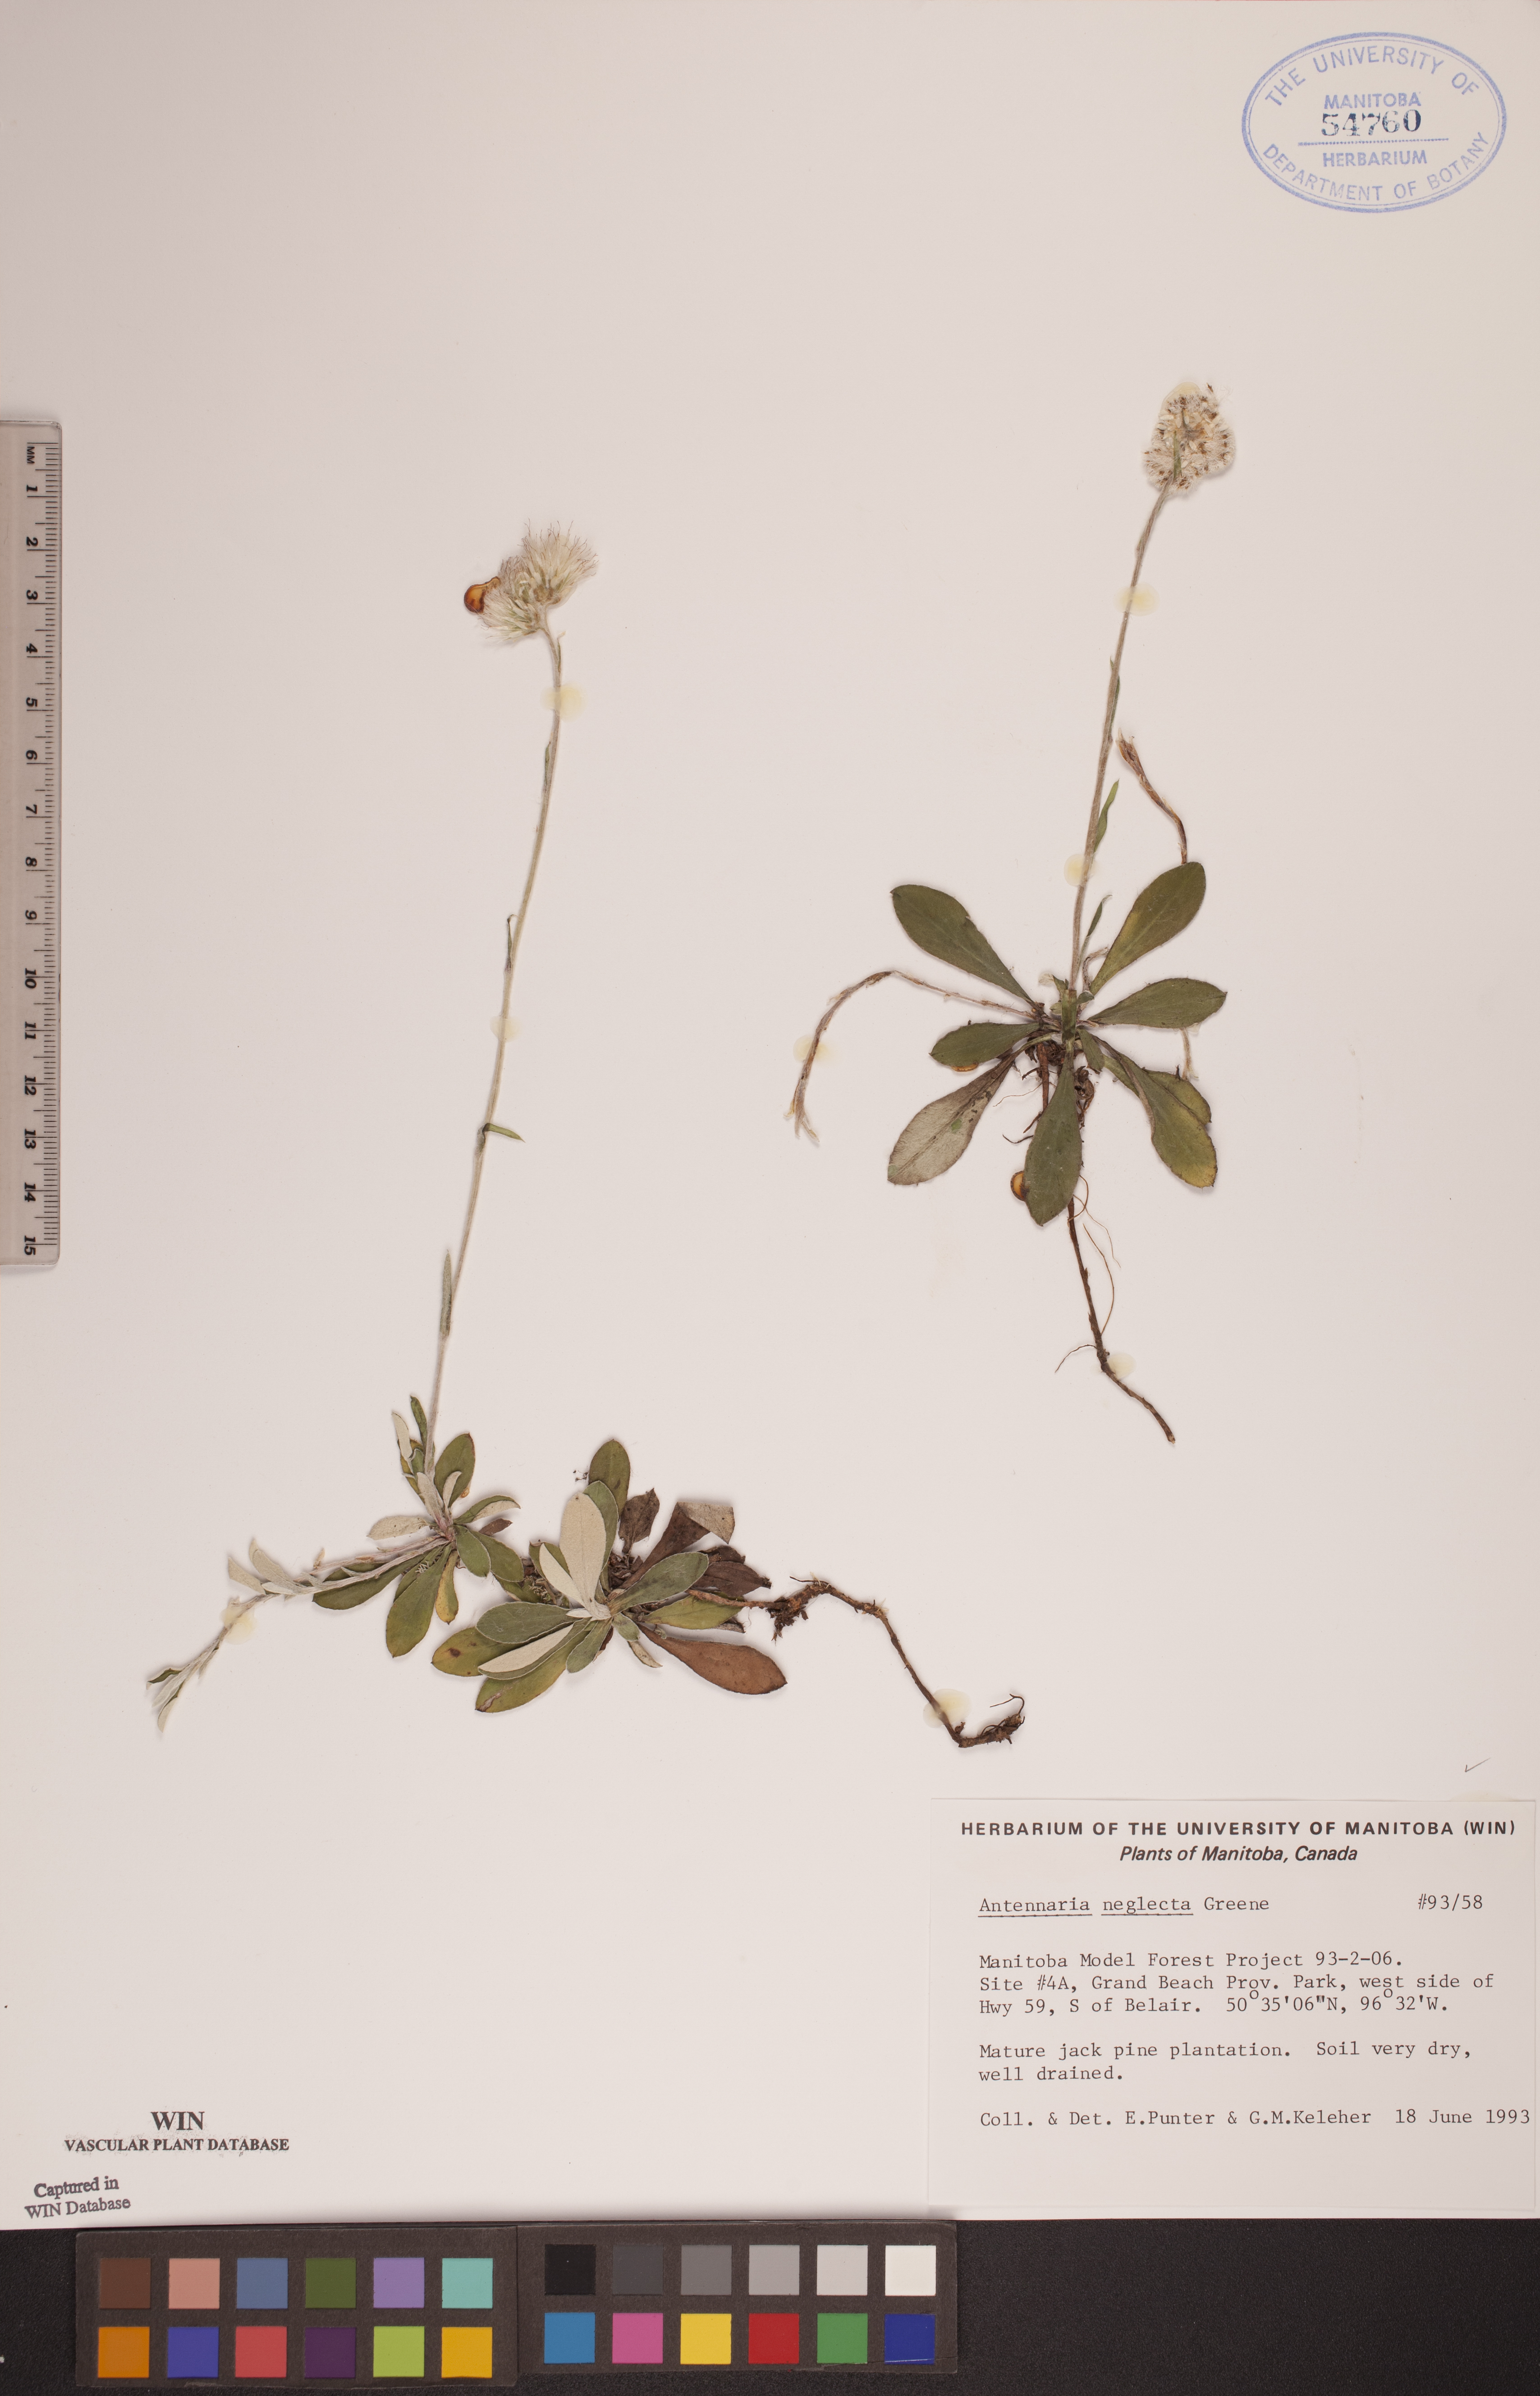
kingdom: Plantae
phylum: Tracheophyta
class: Magnoliopsida
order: Asterales
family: Asteraceae
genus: Antennaria
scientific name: Antennaria neglecta
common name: Field pussytoes
